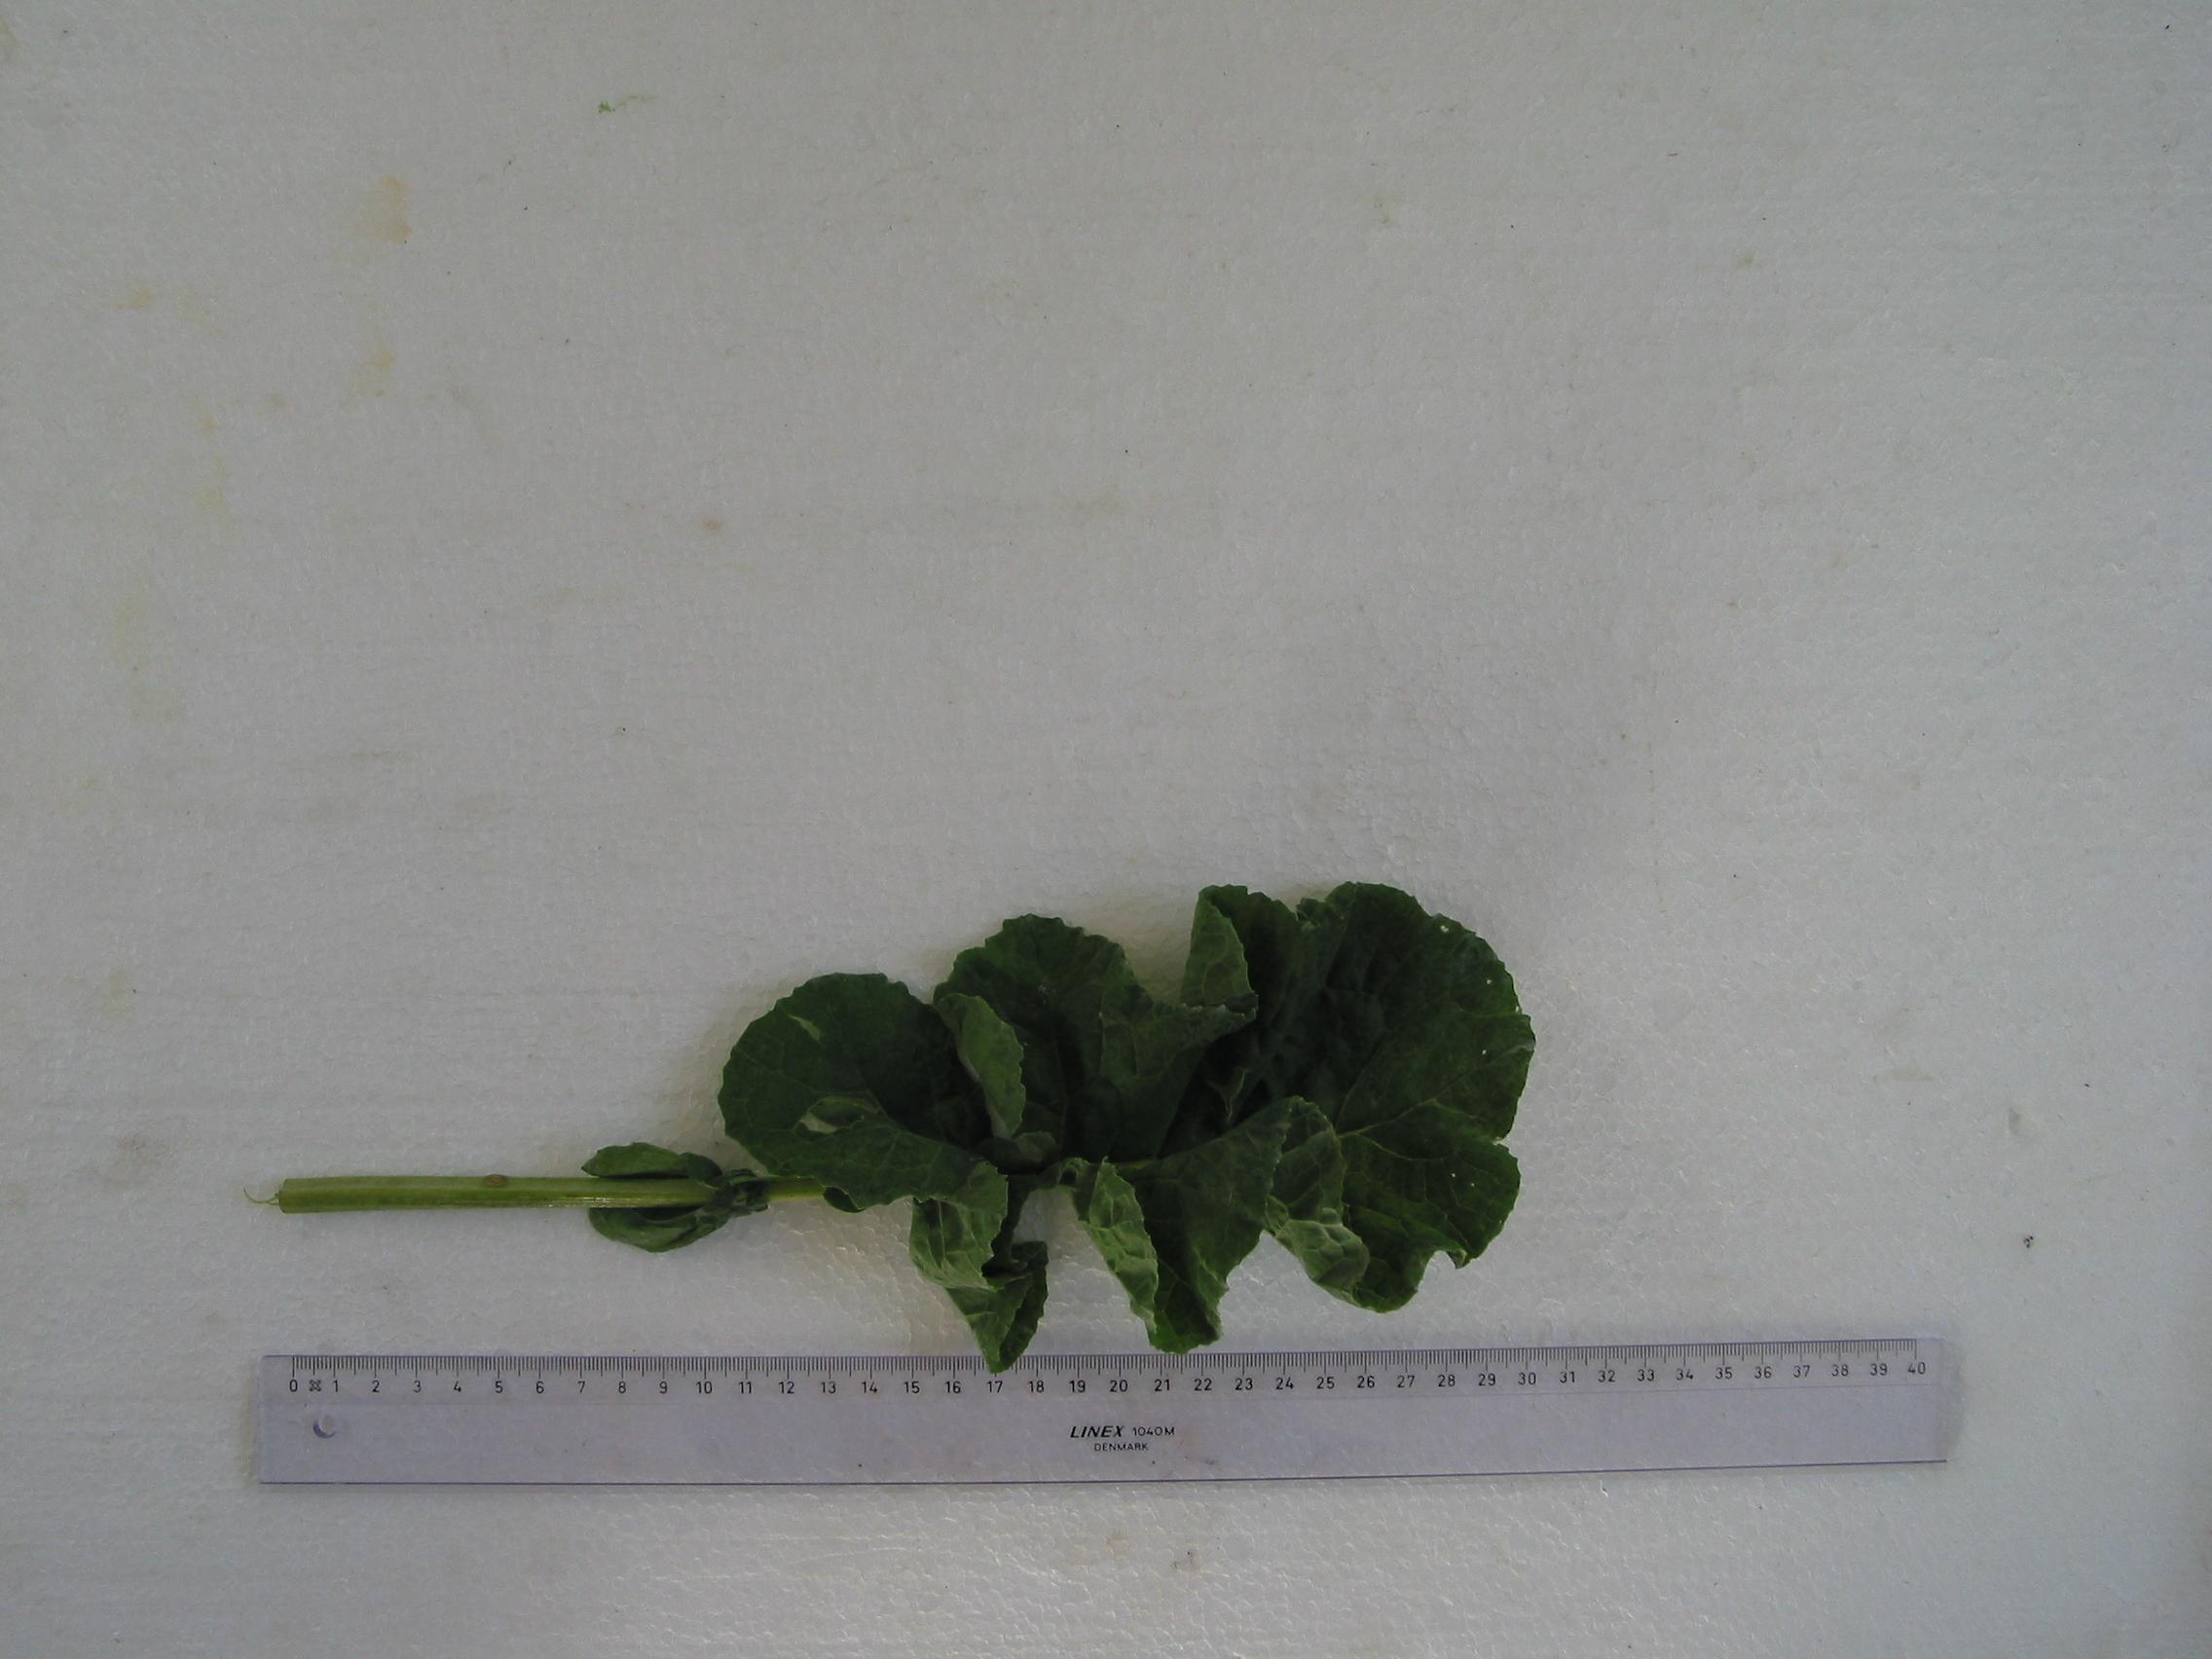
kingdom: Plantae
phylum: Tracheophyta
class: Magnoliopsida
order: Brassicales
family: Brassicaceae
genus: Brassica
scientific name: Brassica napus
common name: Rape
